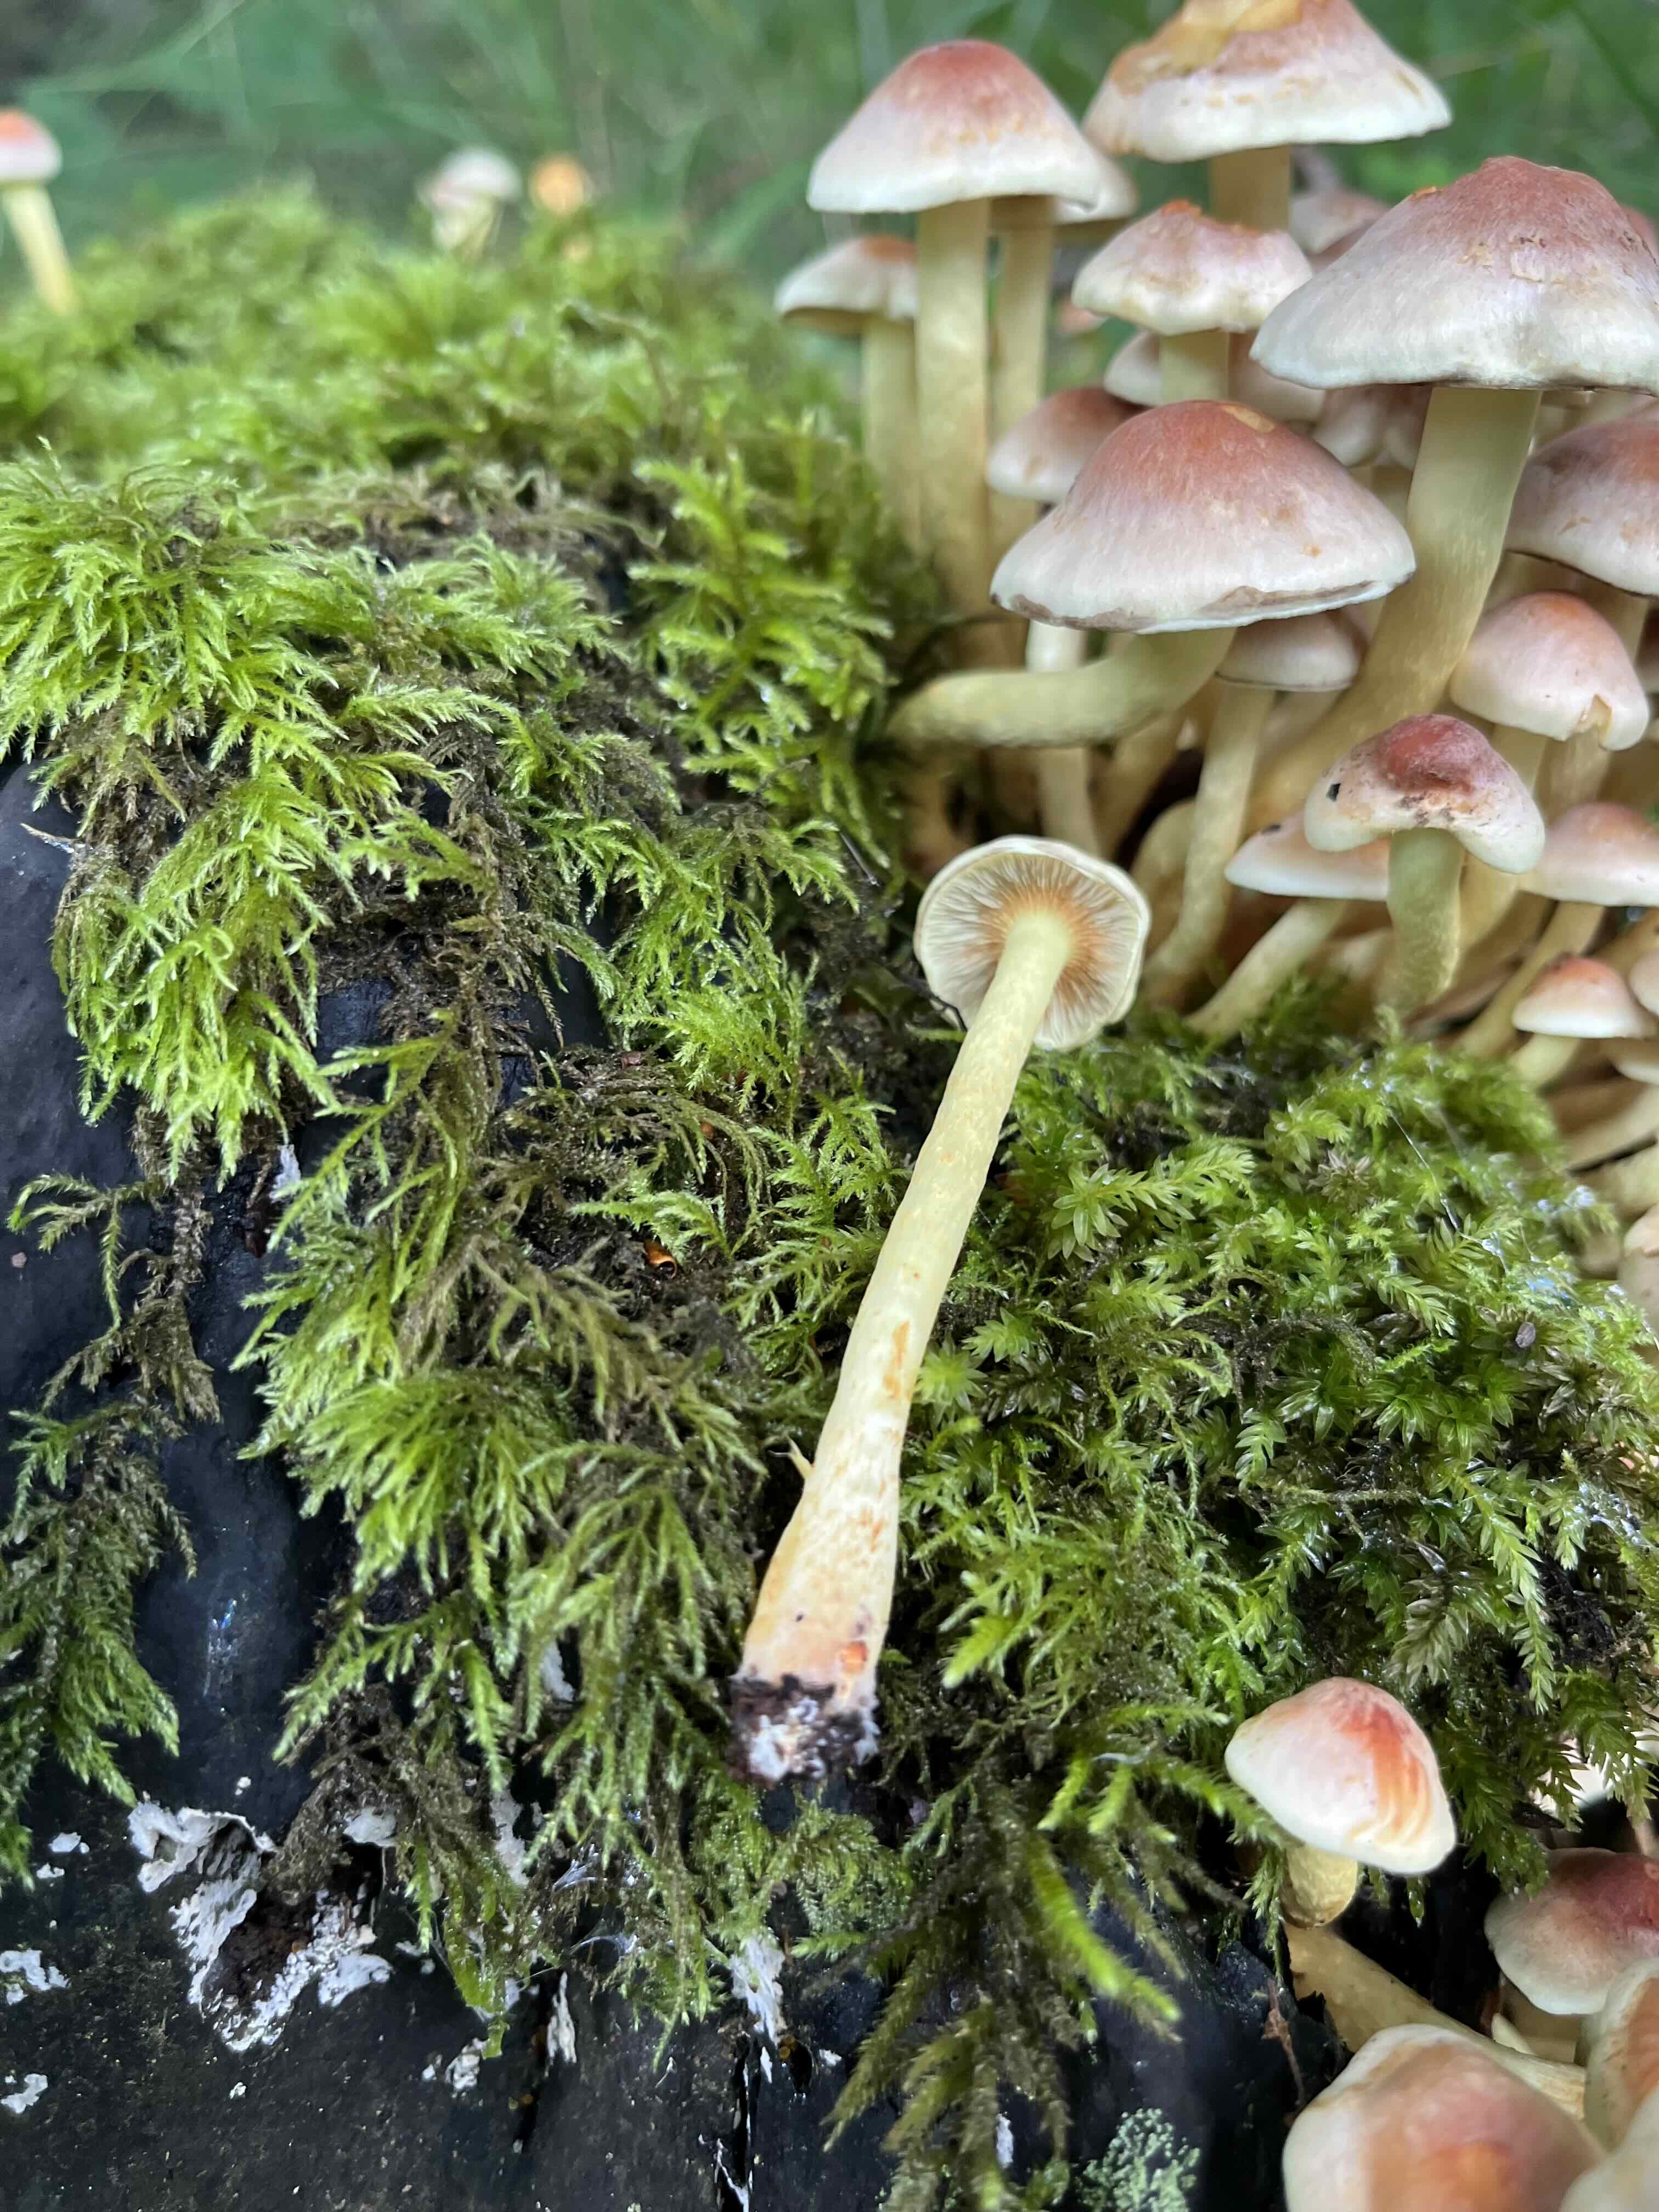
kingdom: Fungi
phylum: Basidiomycota
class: Agaricomycetes
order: Agaricales
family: Strophariaceae
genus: Hypholoma
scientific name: Hypholoma fasciculare
